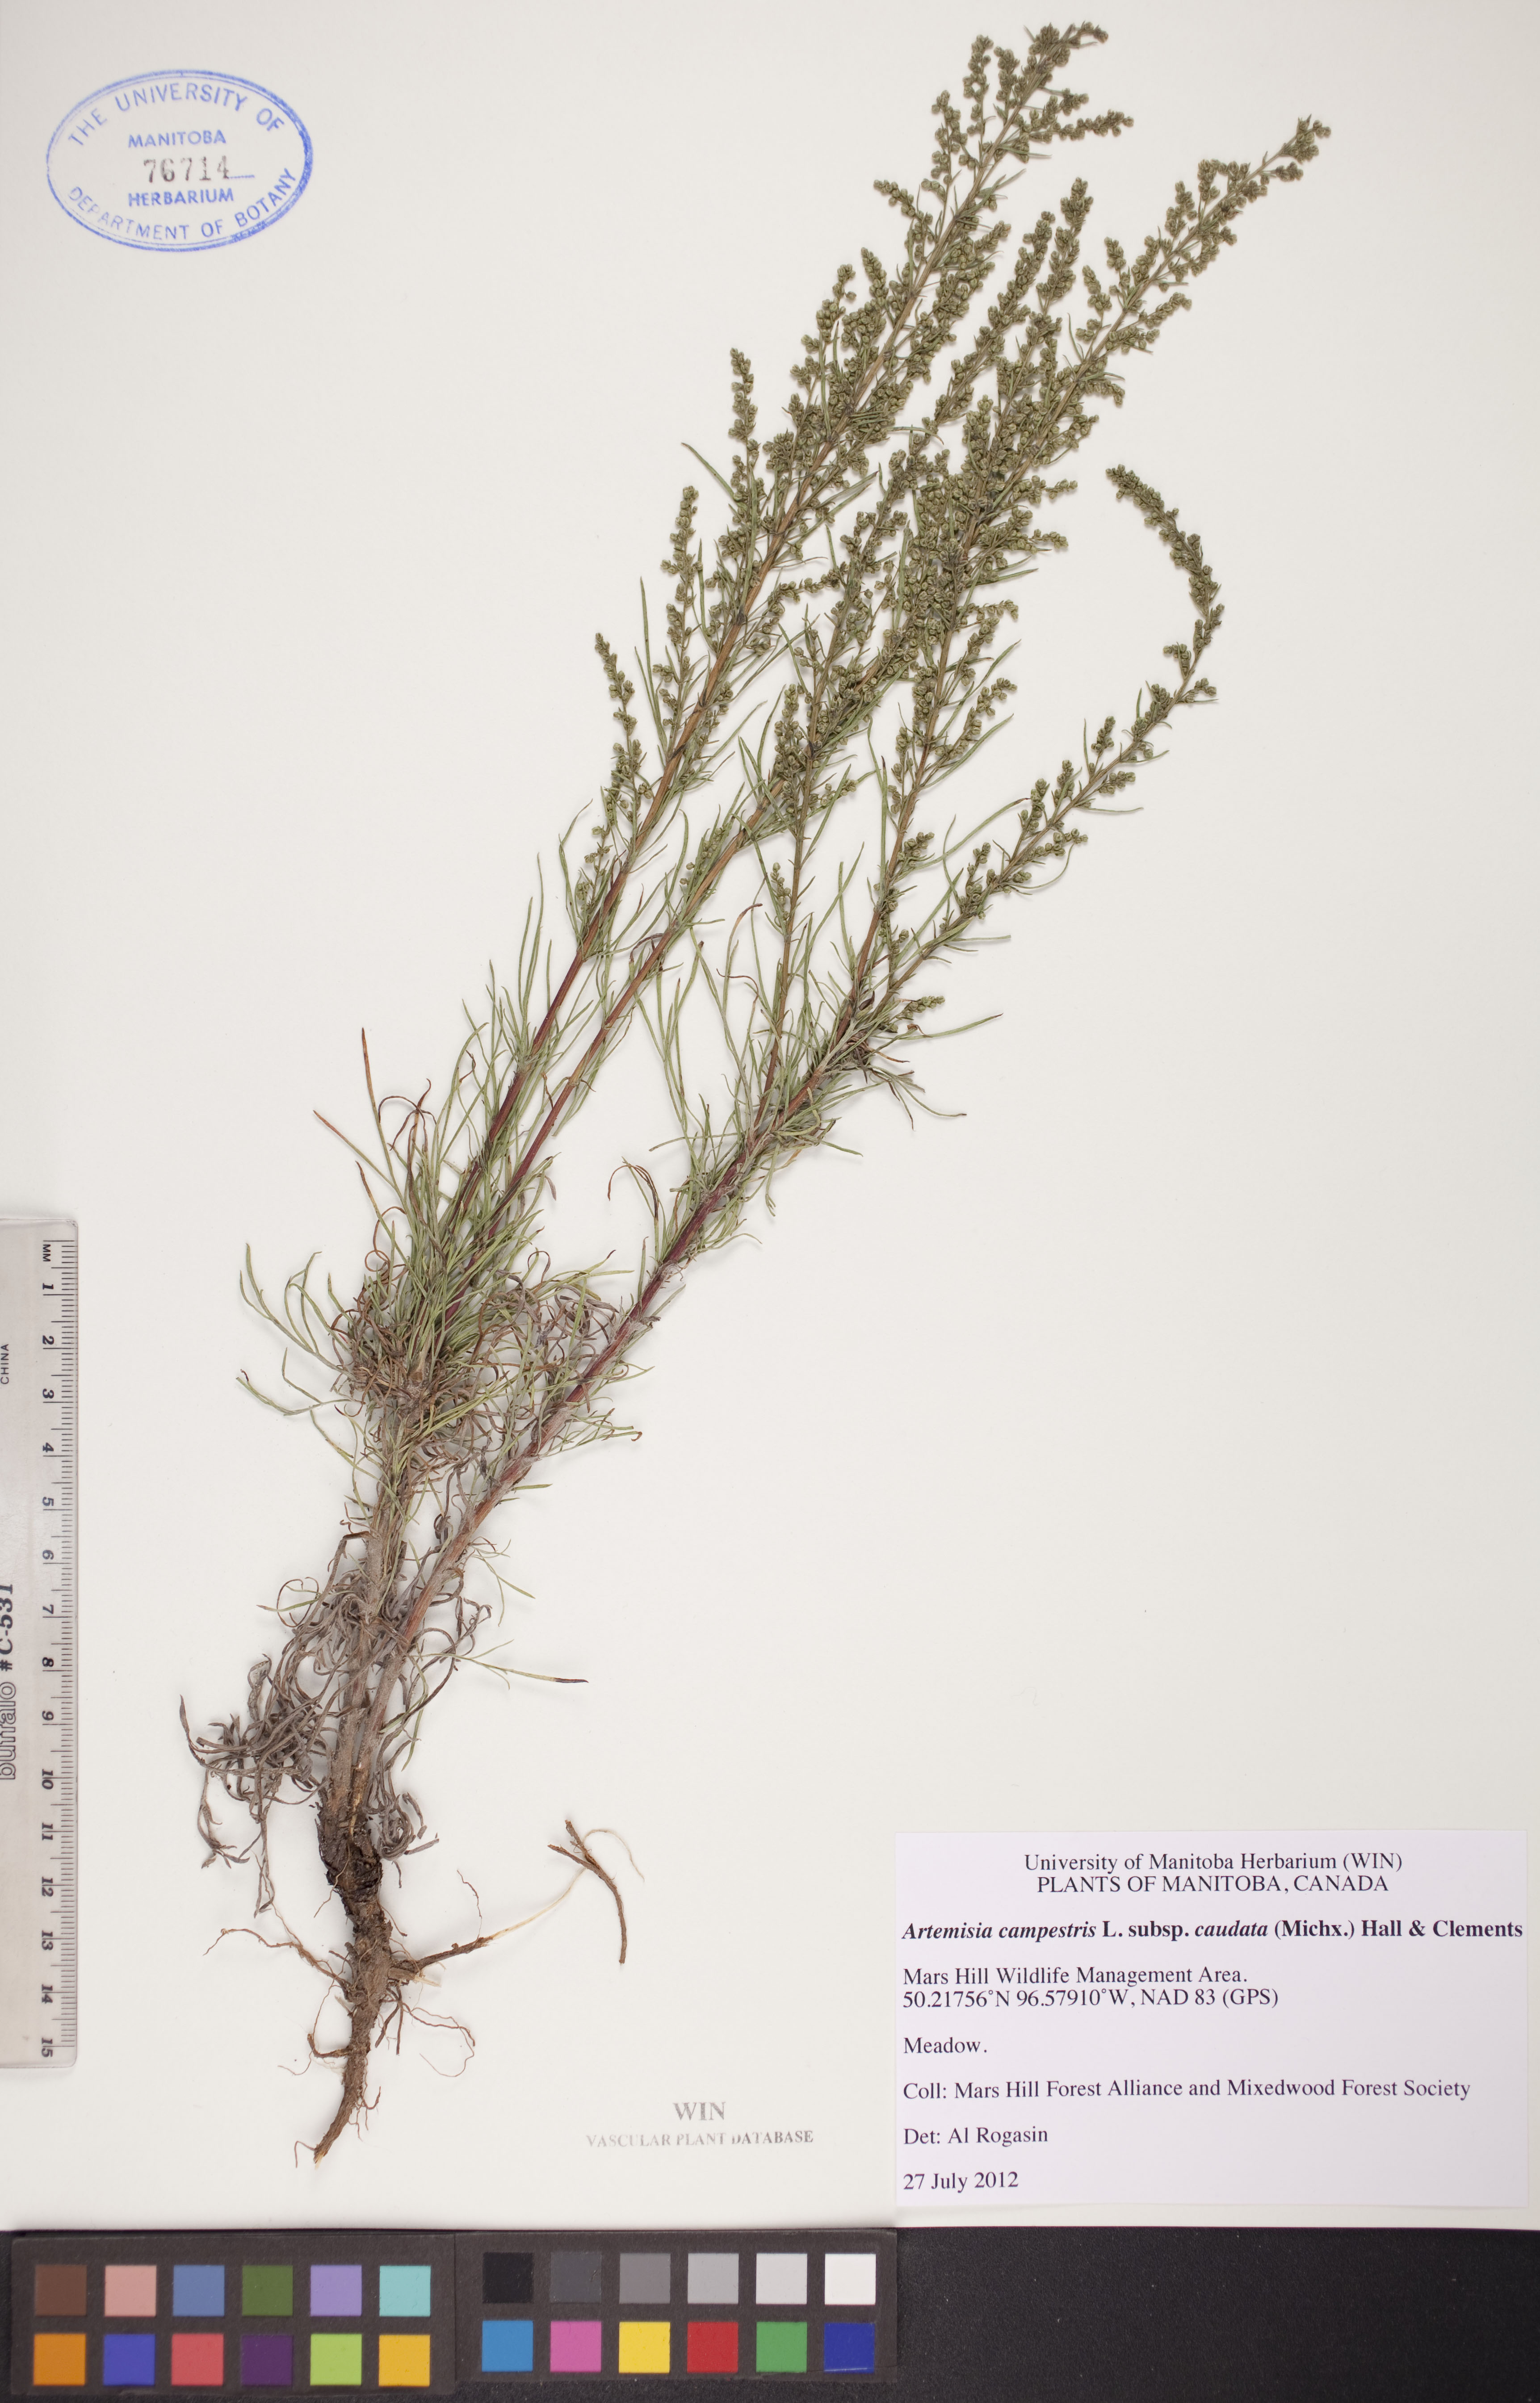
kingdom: Plantae
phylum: Tracheophyta
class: Magnoliopsida
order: Asterales
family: Asteraceae
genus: Artemisia
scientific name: Artemisia campestris
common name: Field wormwood
